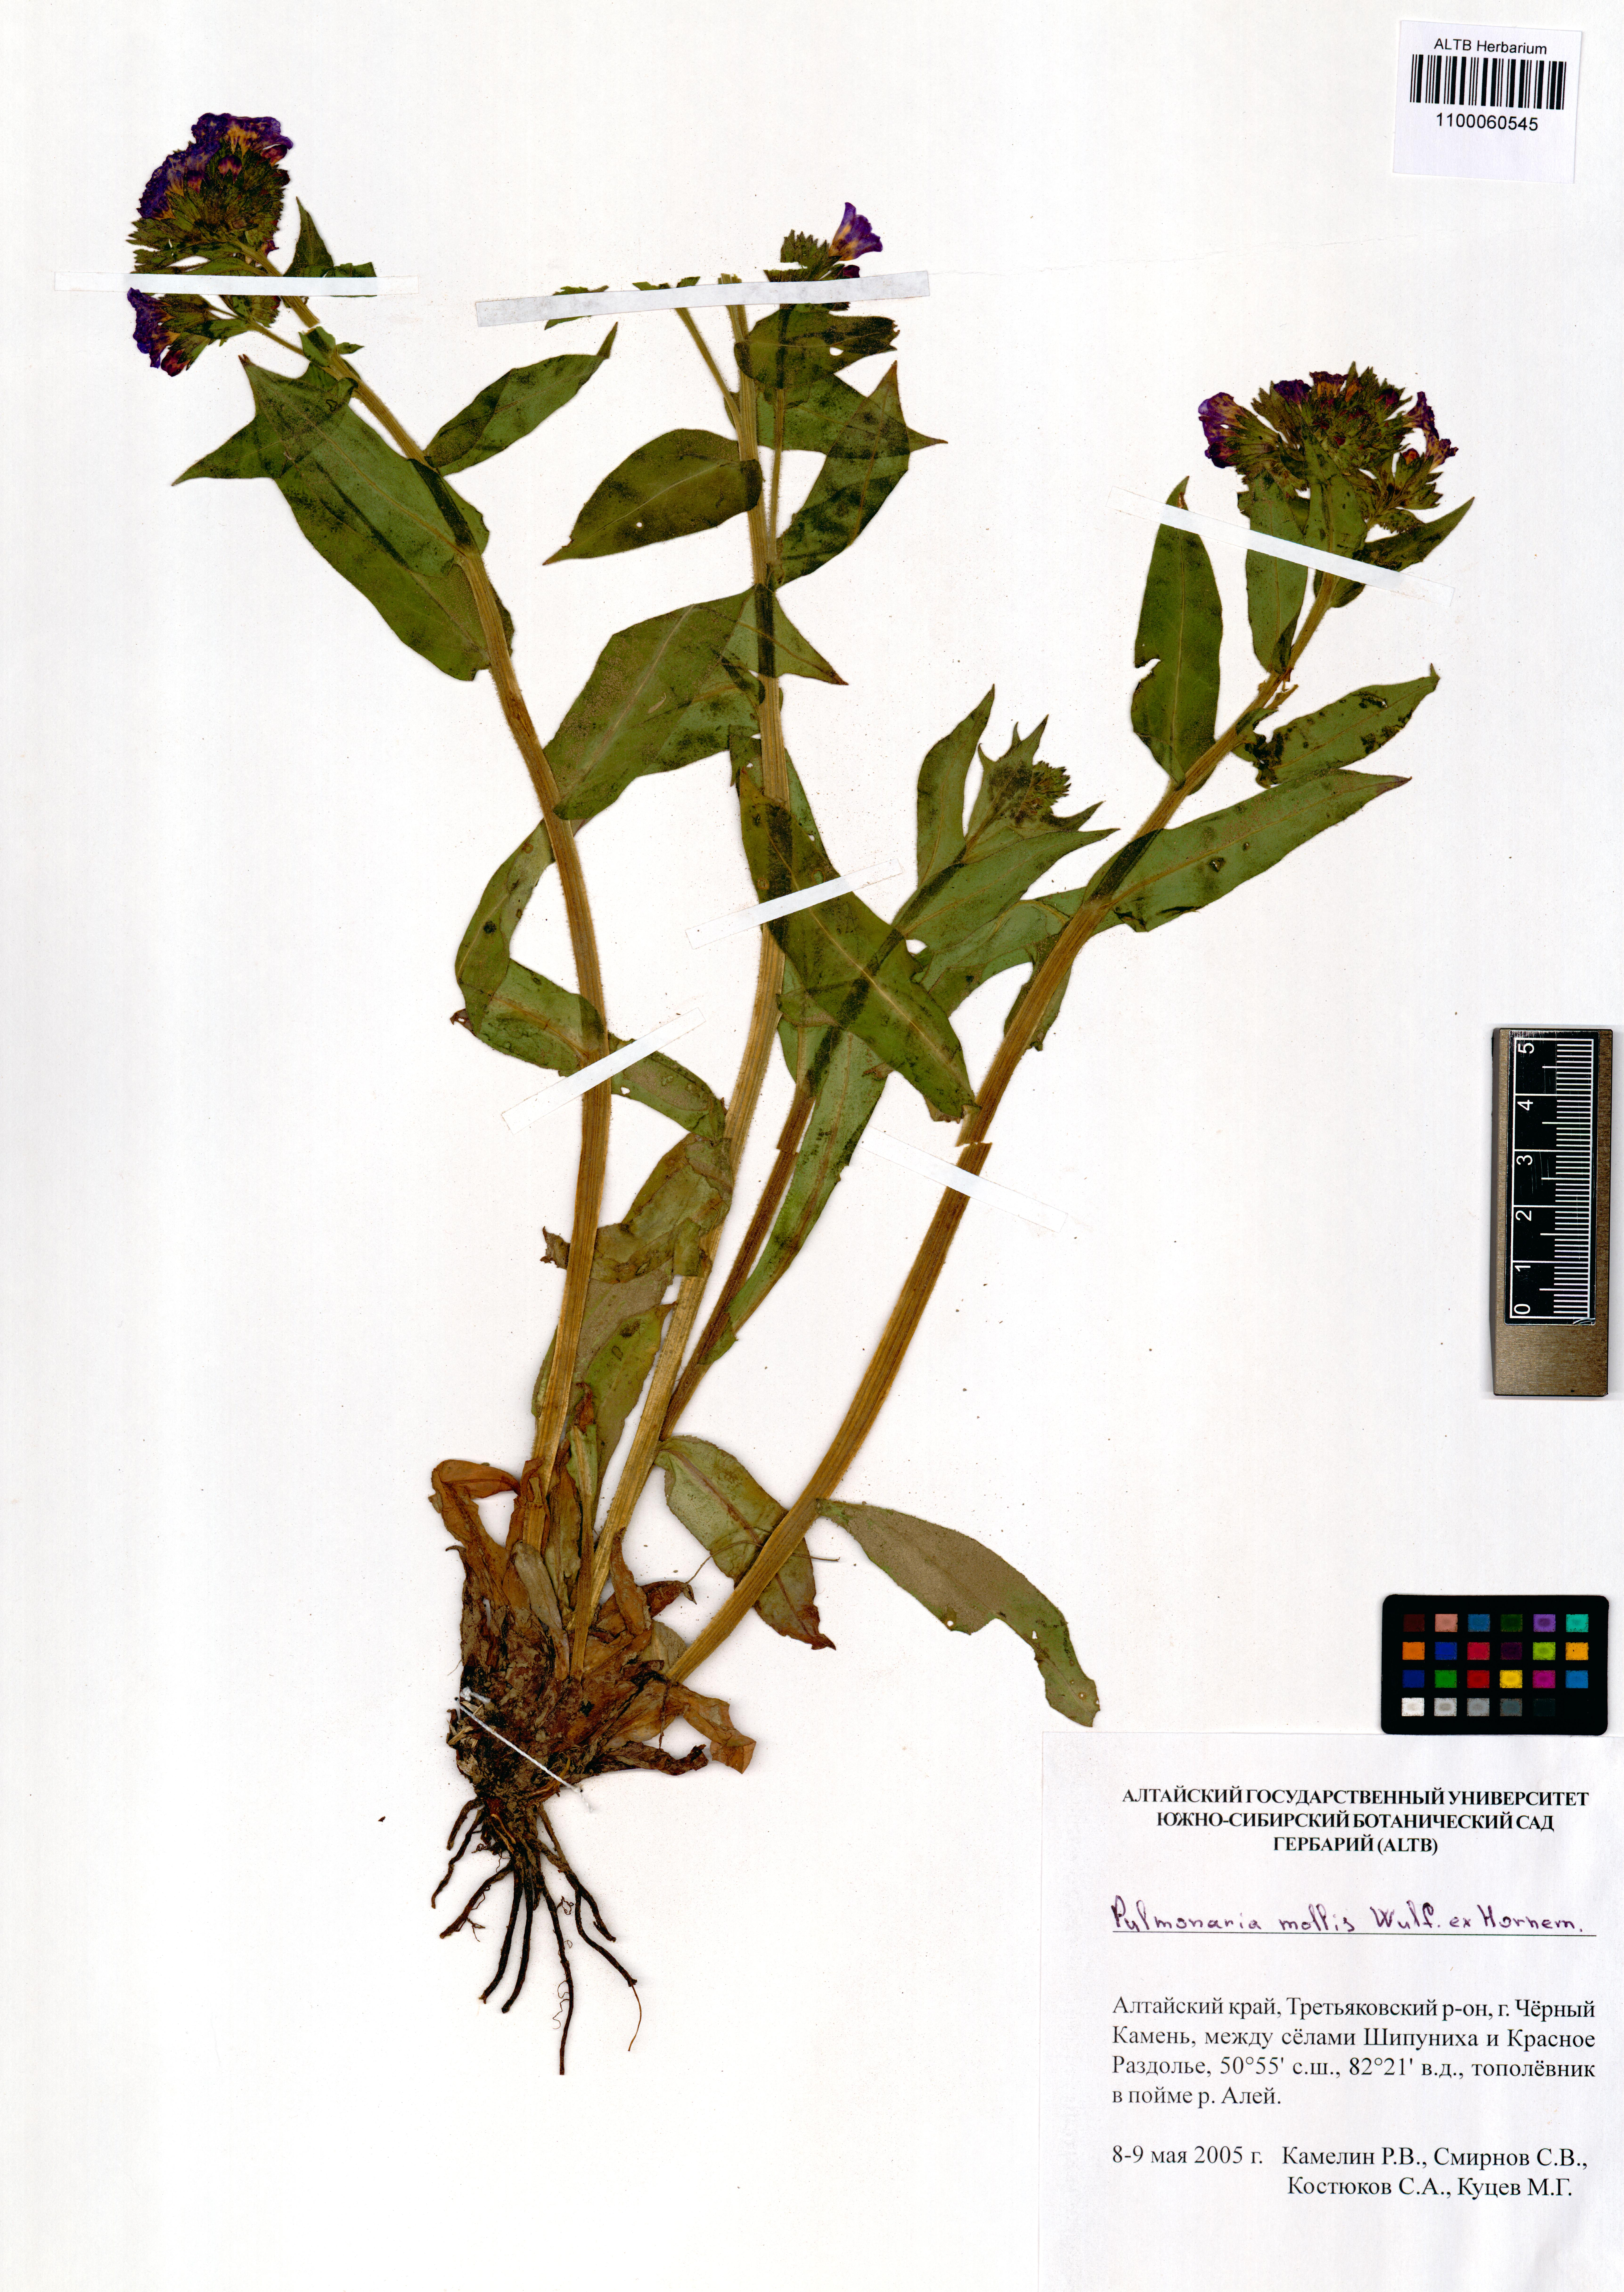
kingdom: Plantae
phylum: Tracheophyta
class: Magnoliopsida
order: Boraginales
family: Boraginaceae
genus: Pulmonaria
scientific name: Pulmonaria mollis
